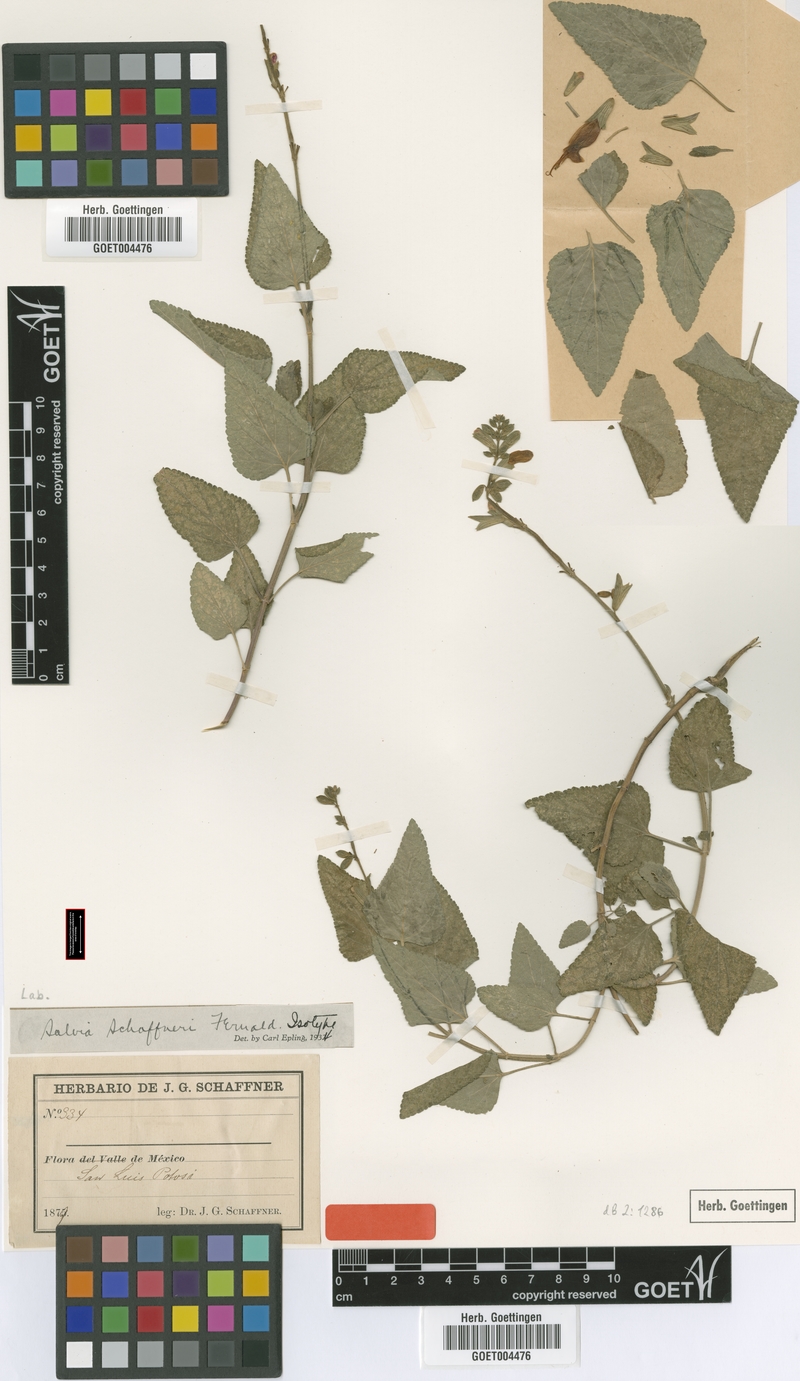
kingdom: Plantae
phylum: Tracheophyta
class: Magnoliopsida
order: Lamiales
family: Lamiaceae
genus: Salvia
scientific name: Salvia fulgens
